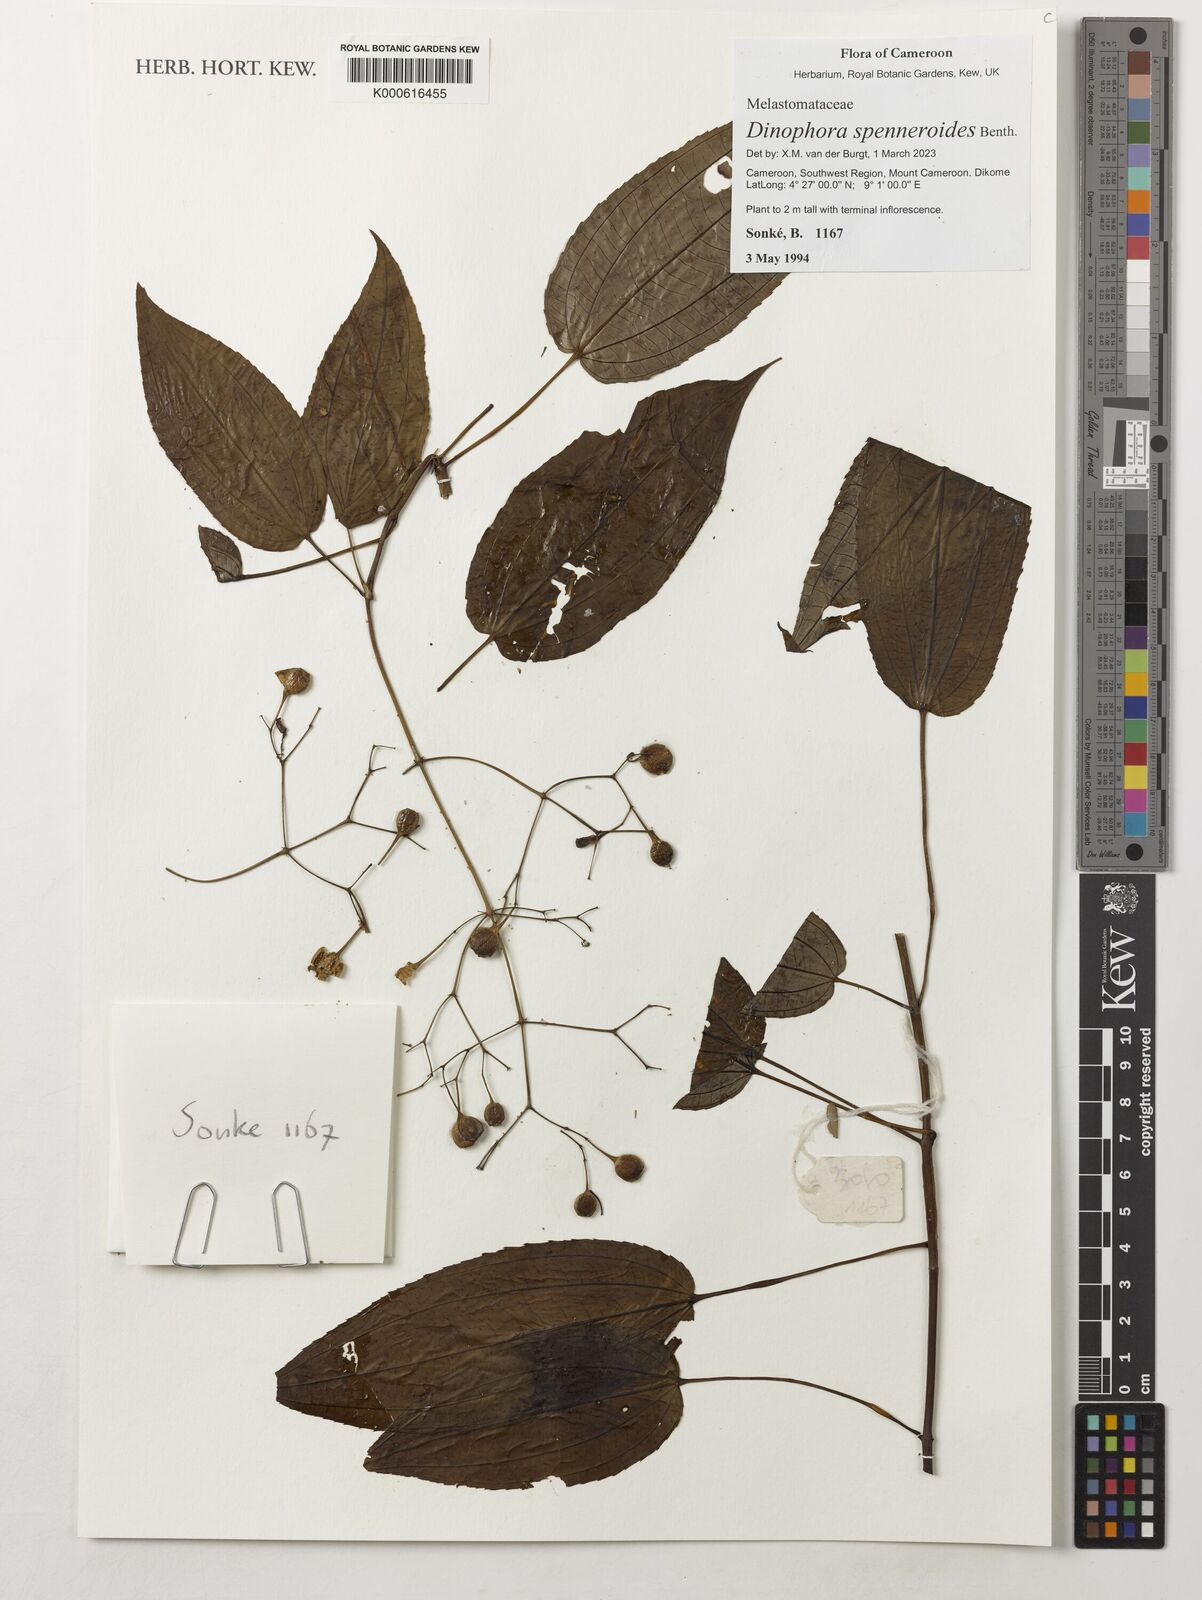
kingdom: Plantae
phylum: Tracheophyta
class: Magnoliopsida
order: Myrtales
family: Melastomataceae
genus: Dinophora
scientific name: Dinophora spenneroides
